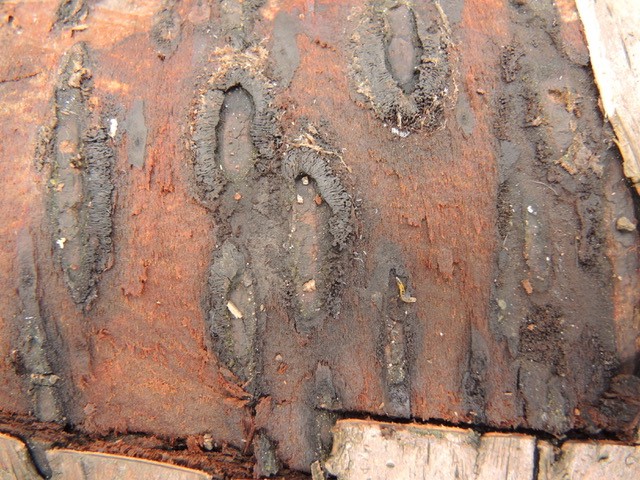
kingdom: Fungi
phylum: Ascomycota
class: Sordariomycetes
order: Calosphaeriales
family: Calosphaeriaceae
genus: Calosphaeria
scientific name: Calosphaeria pulchella
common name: smuk slyngkerne
